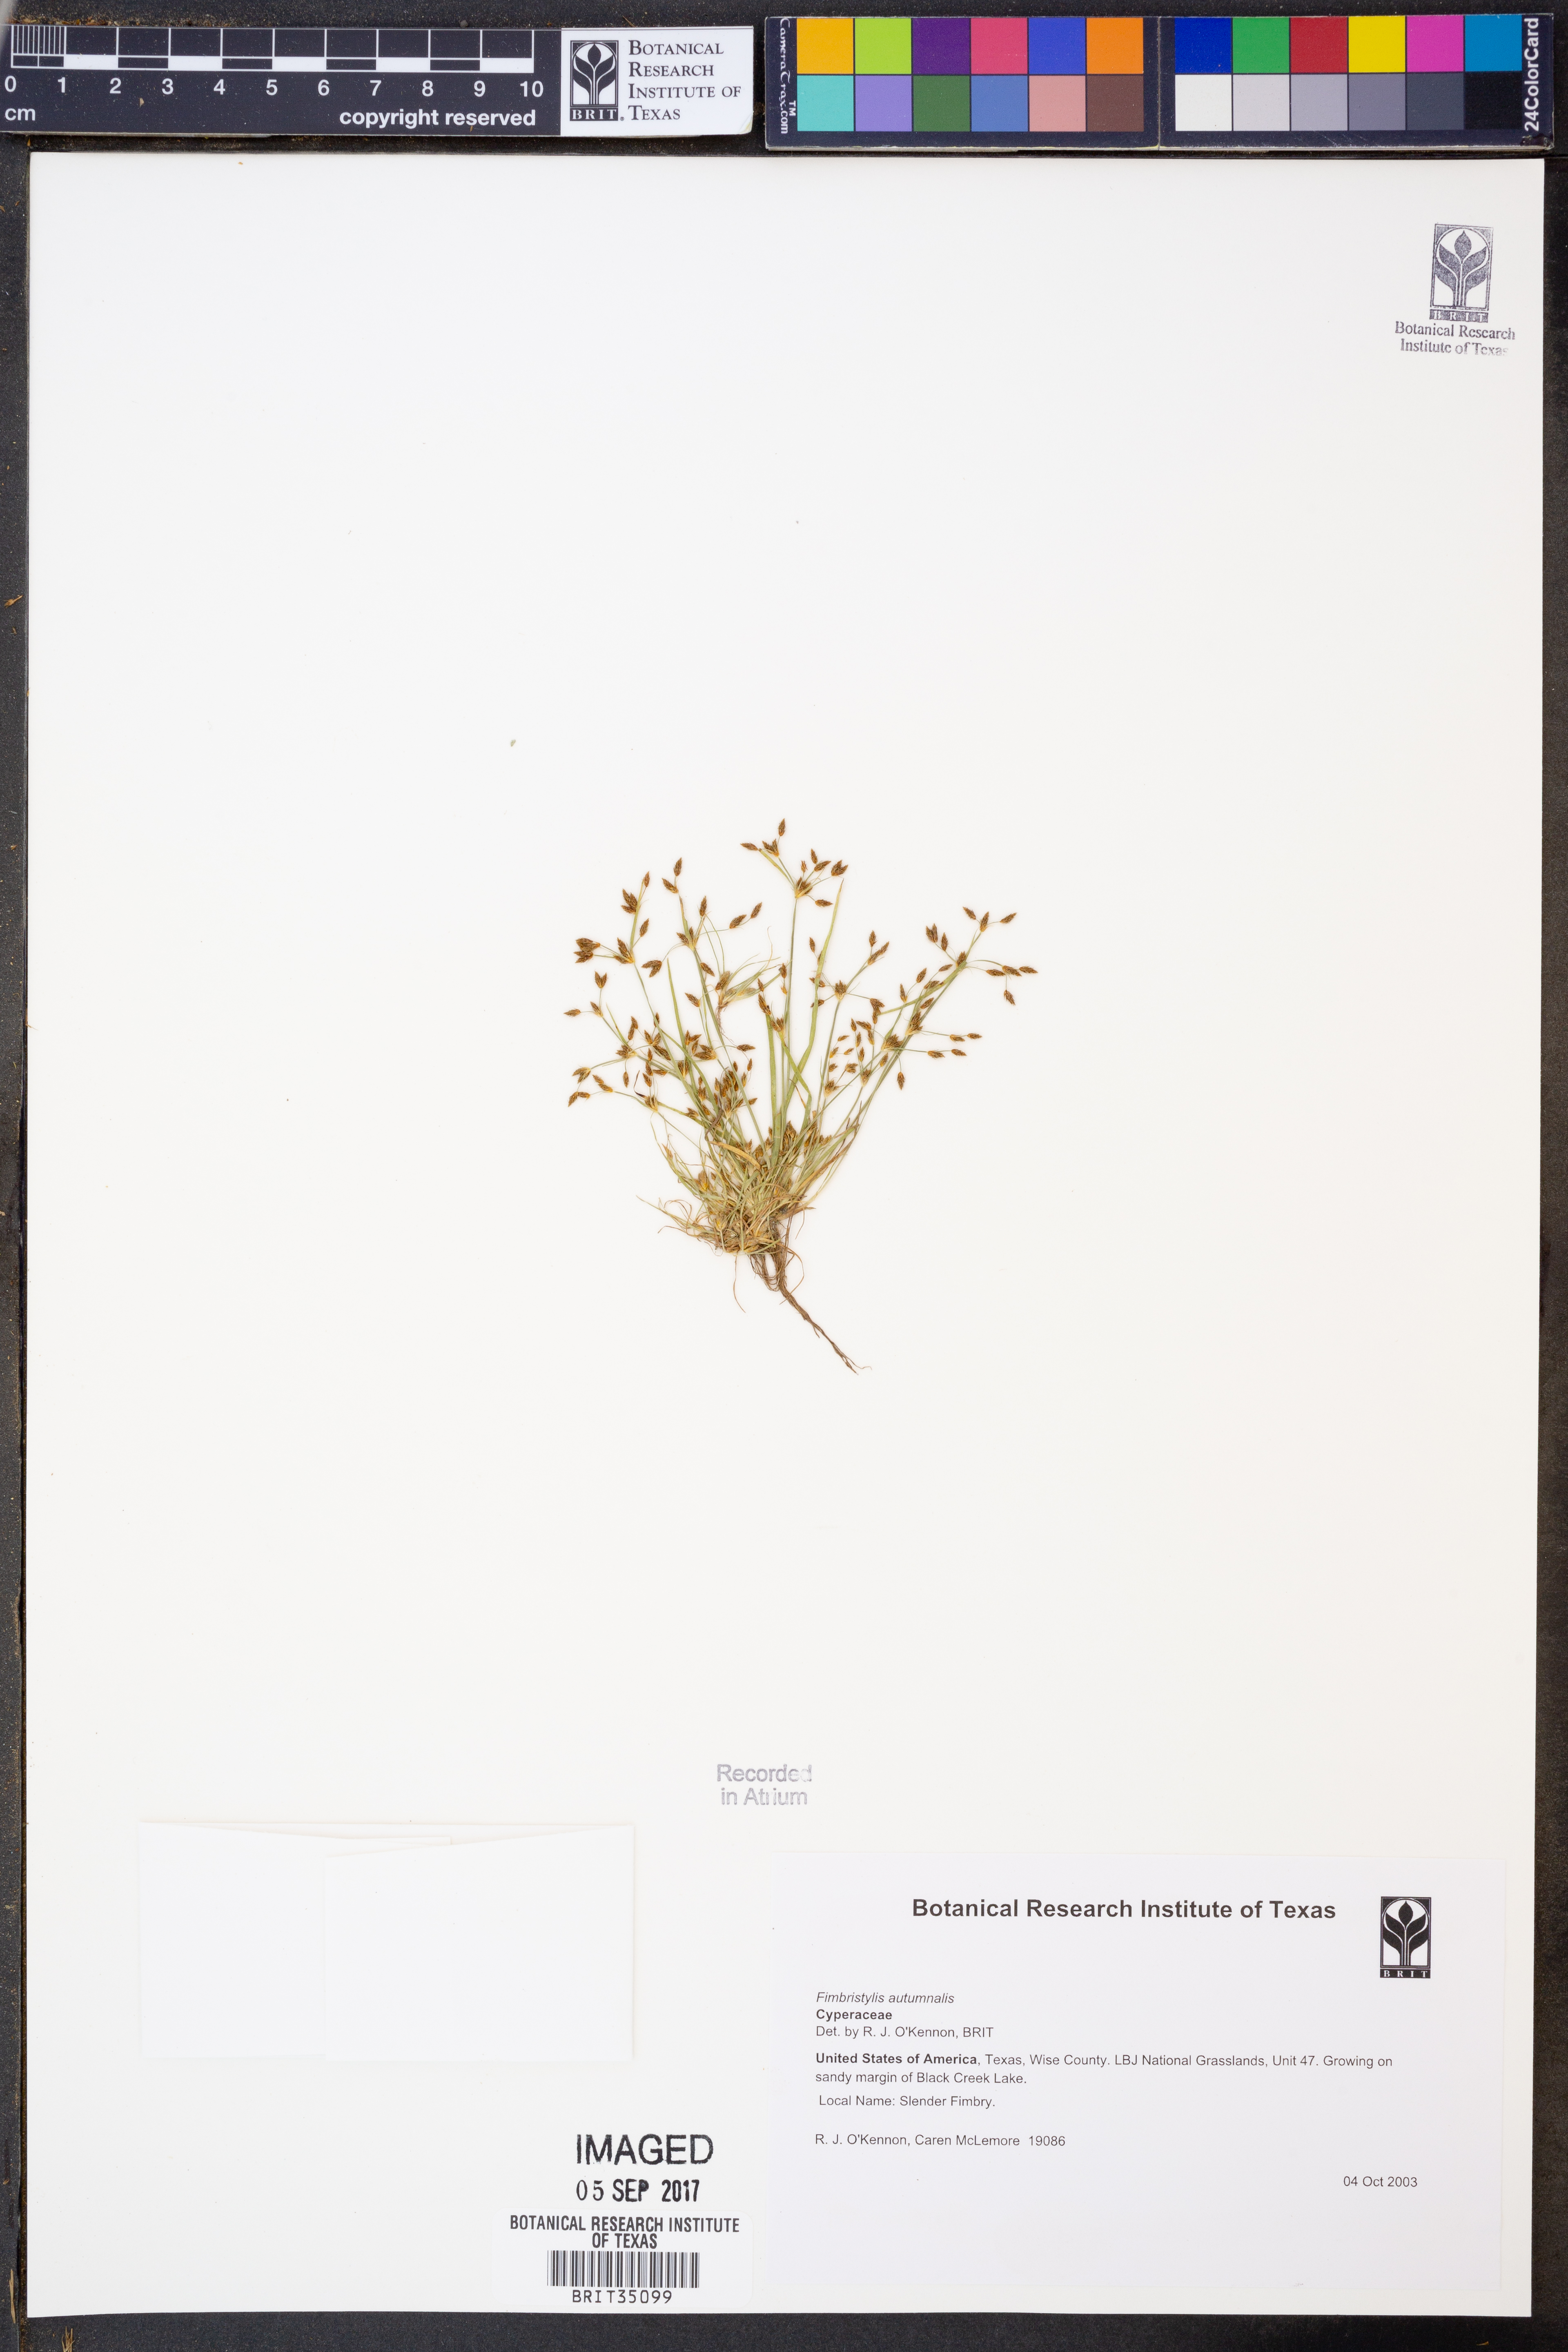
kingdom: Plantae
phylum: Tracheophyta
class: Liliopsida
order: Poales
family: Cyperaceae
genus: Fimbristylis
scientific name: Fimbristylis autumnalis
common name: Slender fimbristylis
